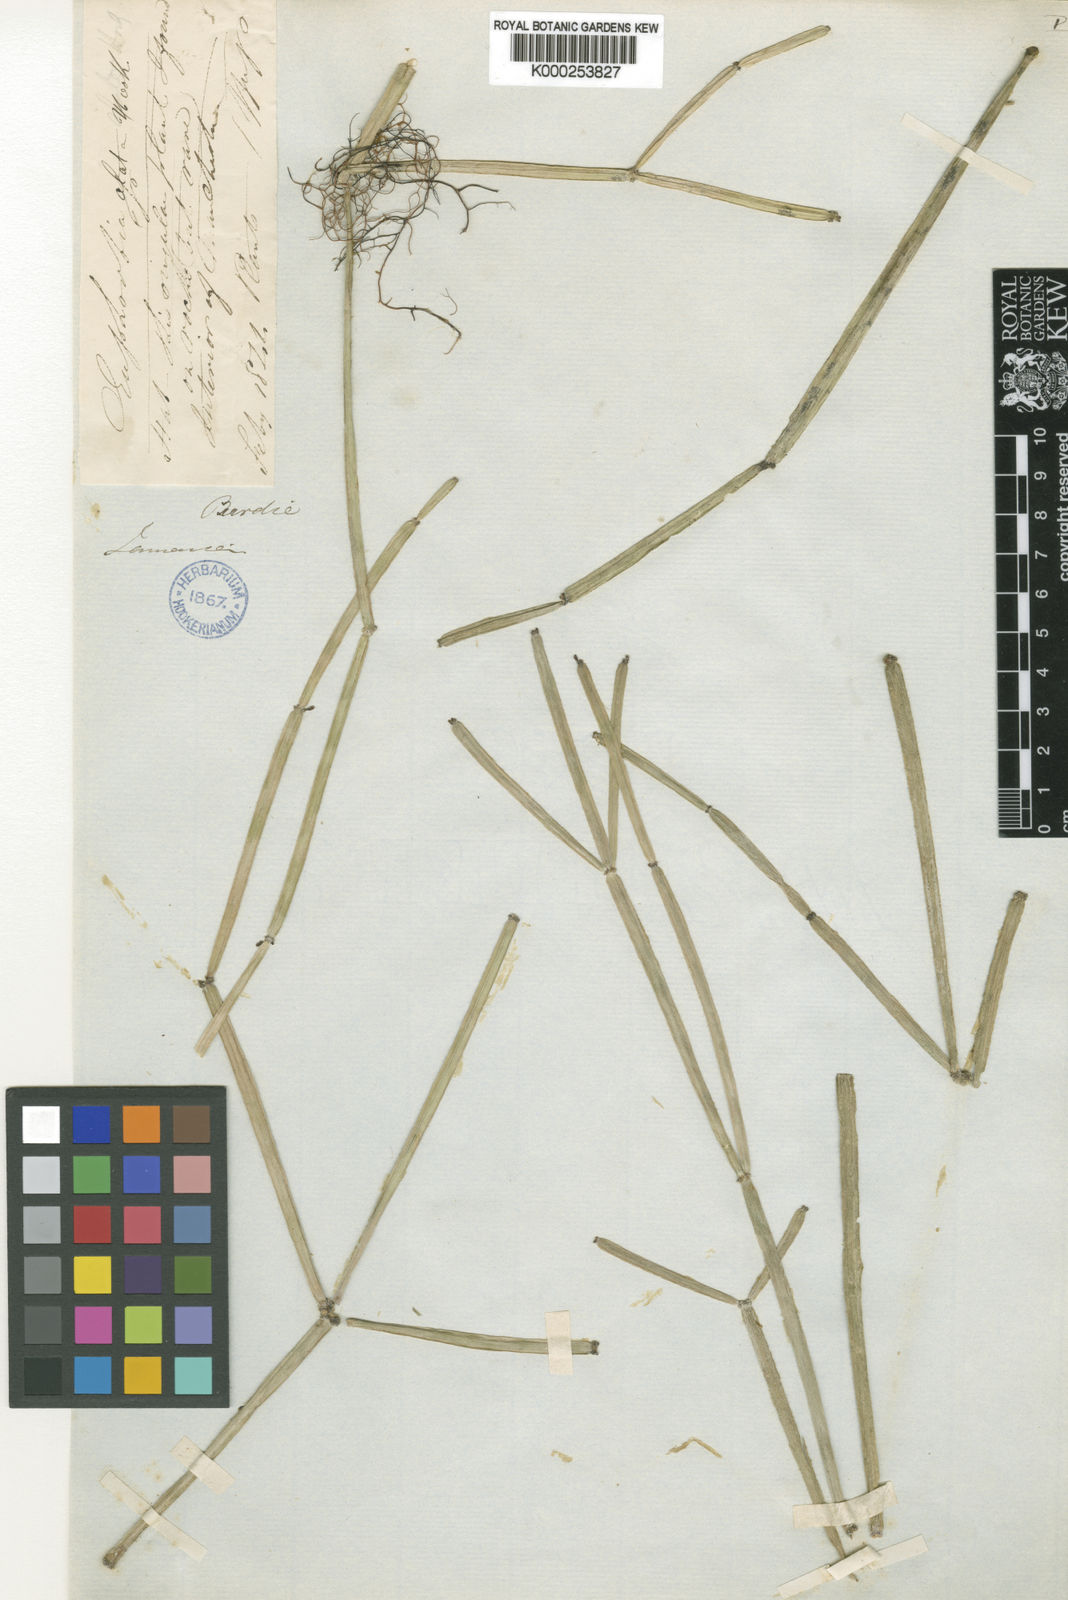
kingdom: Plantae
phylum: Tracheophyta
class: Magnoliopsida
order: Malpighiales
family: Euphorbiaceae
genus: Euphorbia
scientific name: Euphorbia alata
